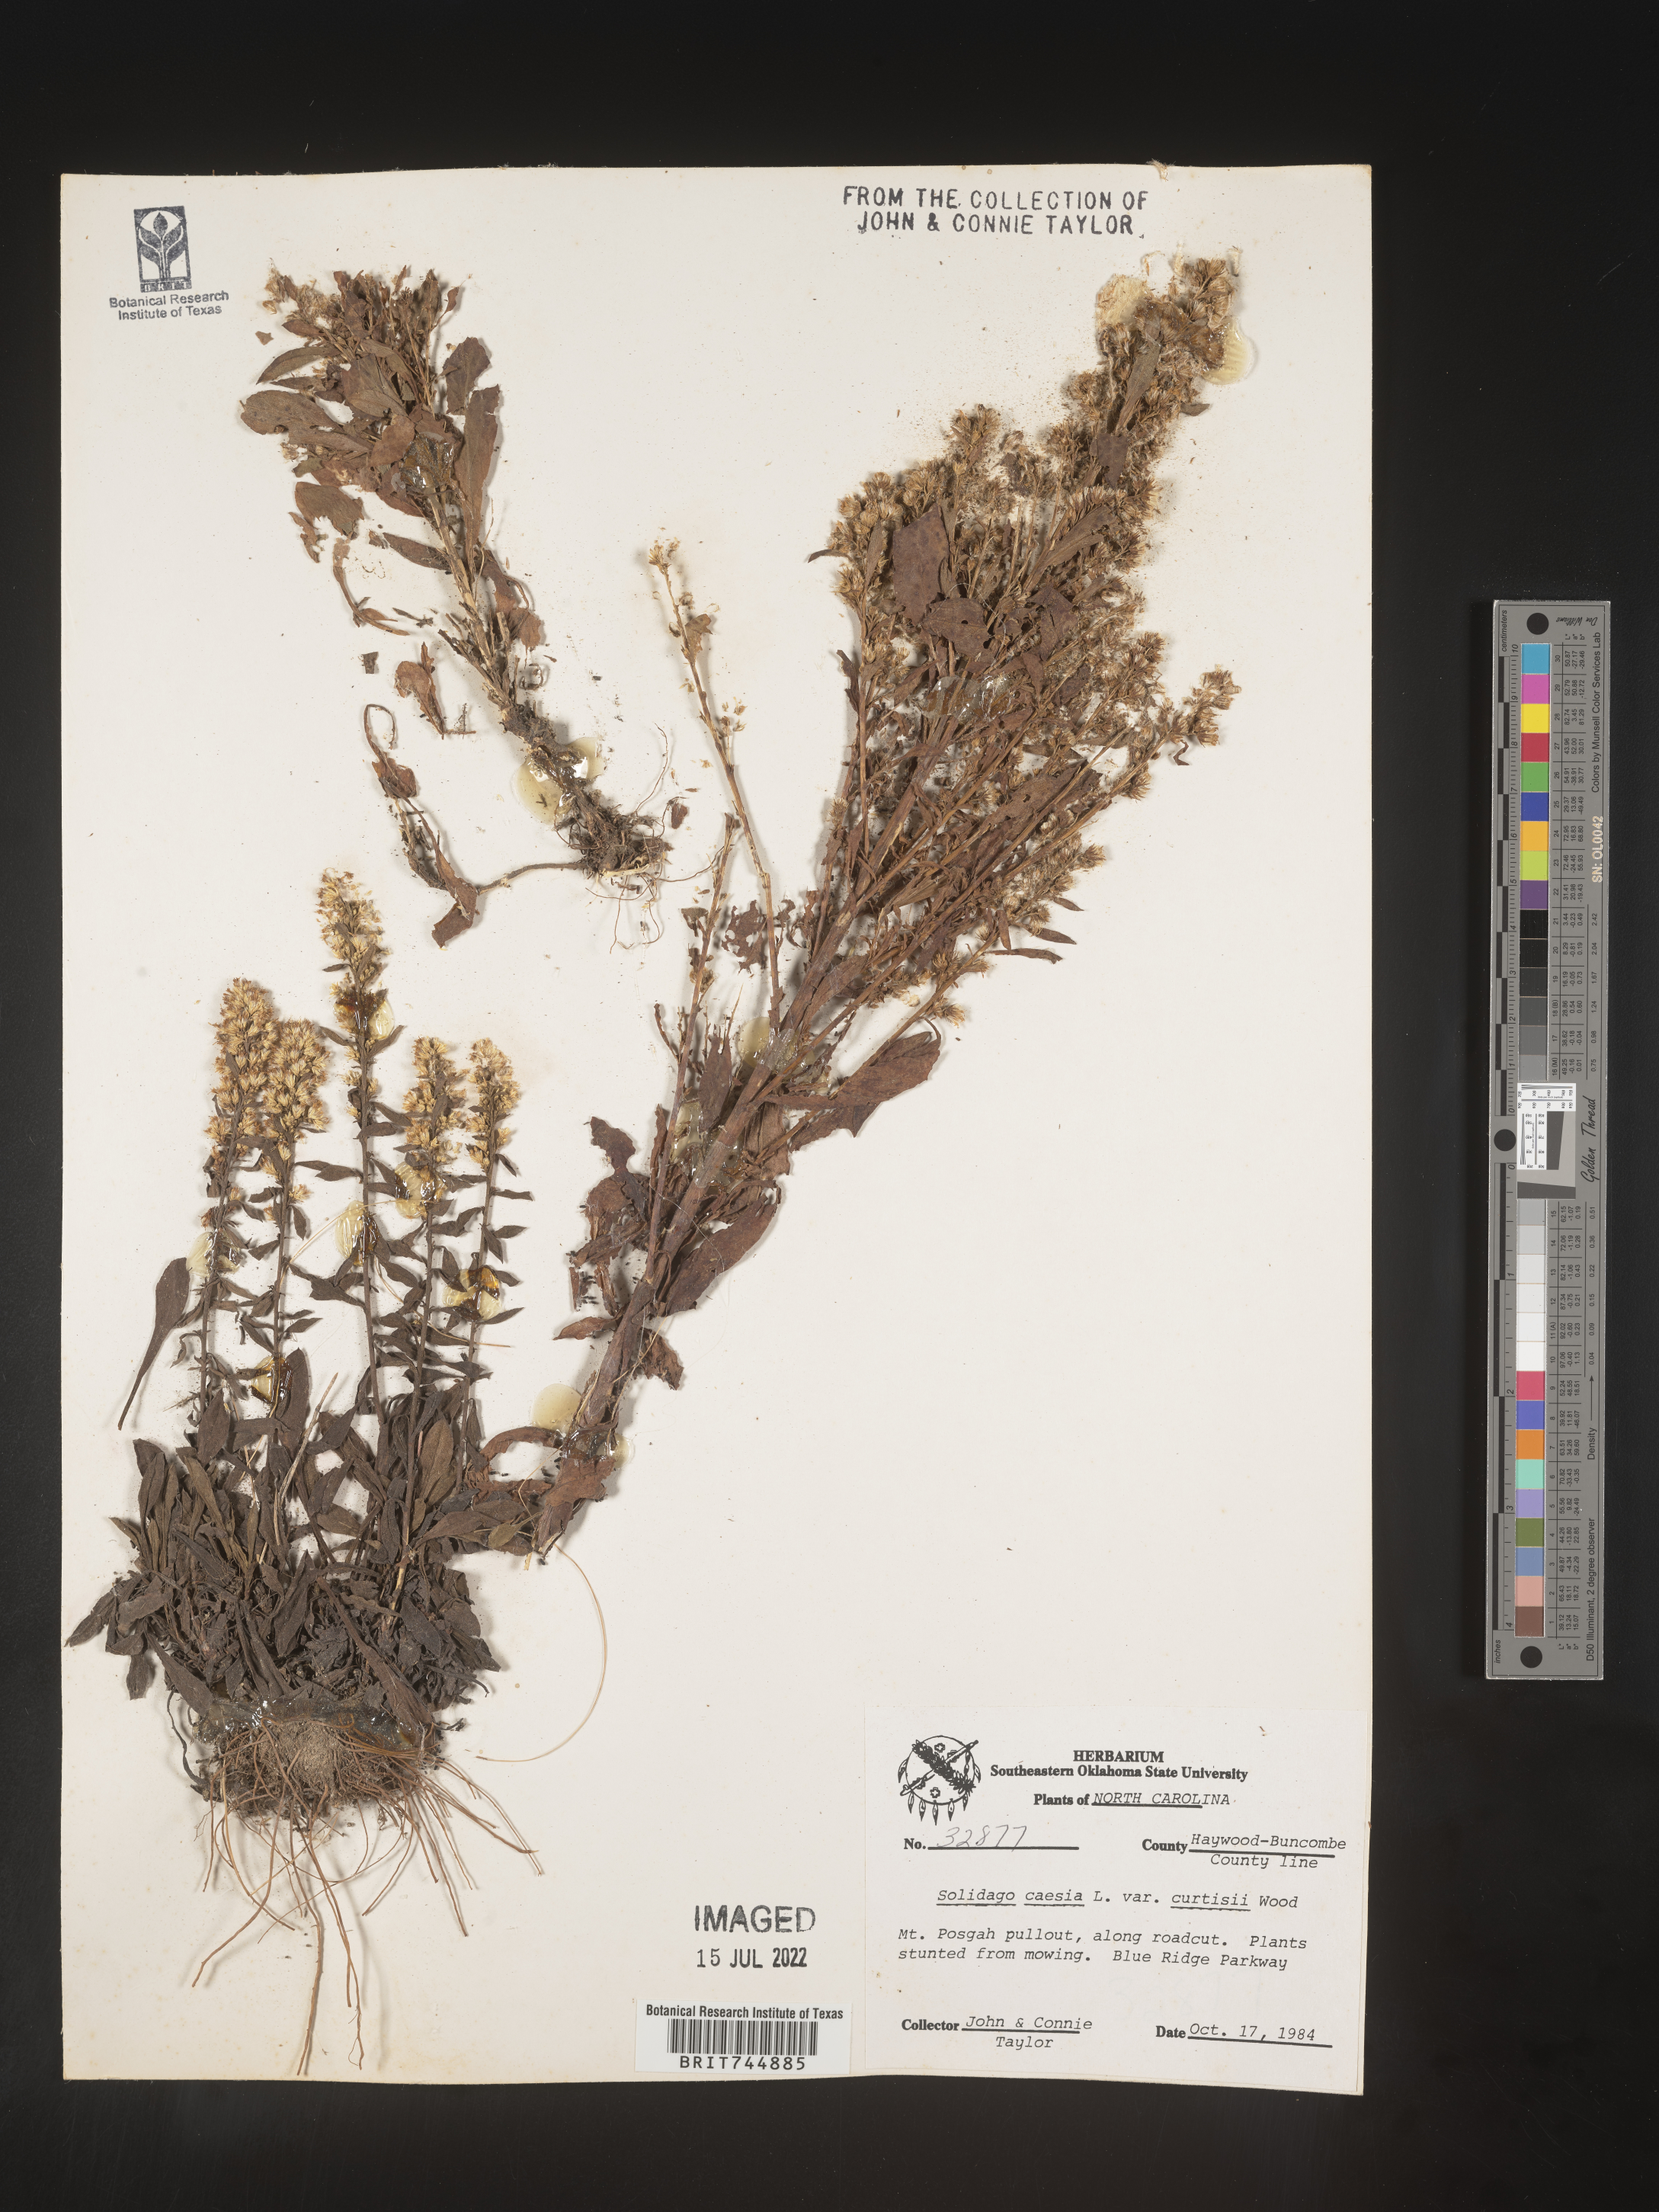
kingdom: Plantae
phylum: Tracheophyta
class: Magnoliopsida
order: Asterales
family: Asteraceae
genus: Solidago
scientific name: Solidago curtisii
